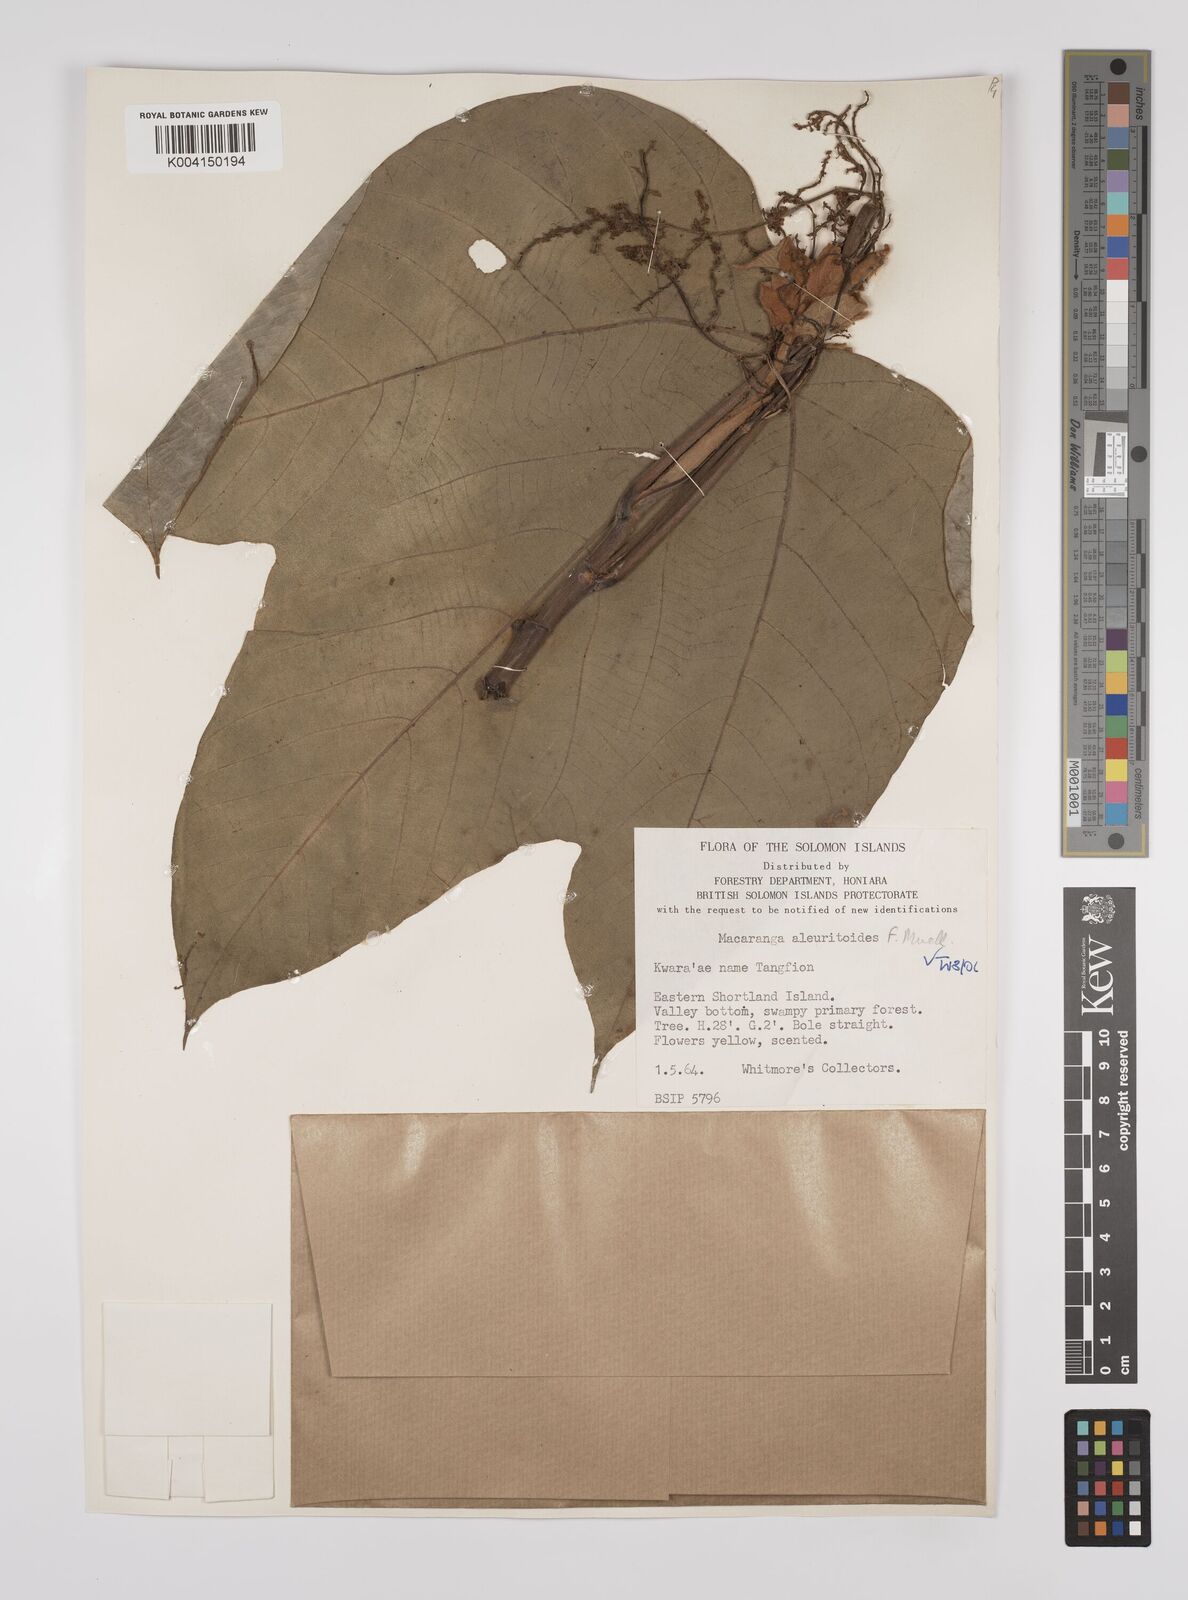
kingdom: Plantae
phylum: Tracheophyta
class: Magnoliopsida
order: Malpighiales
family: Euphorbiaceae
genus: Macaranga
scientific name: Macaranga aleuritoides
